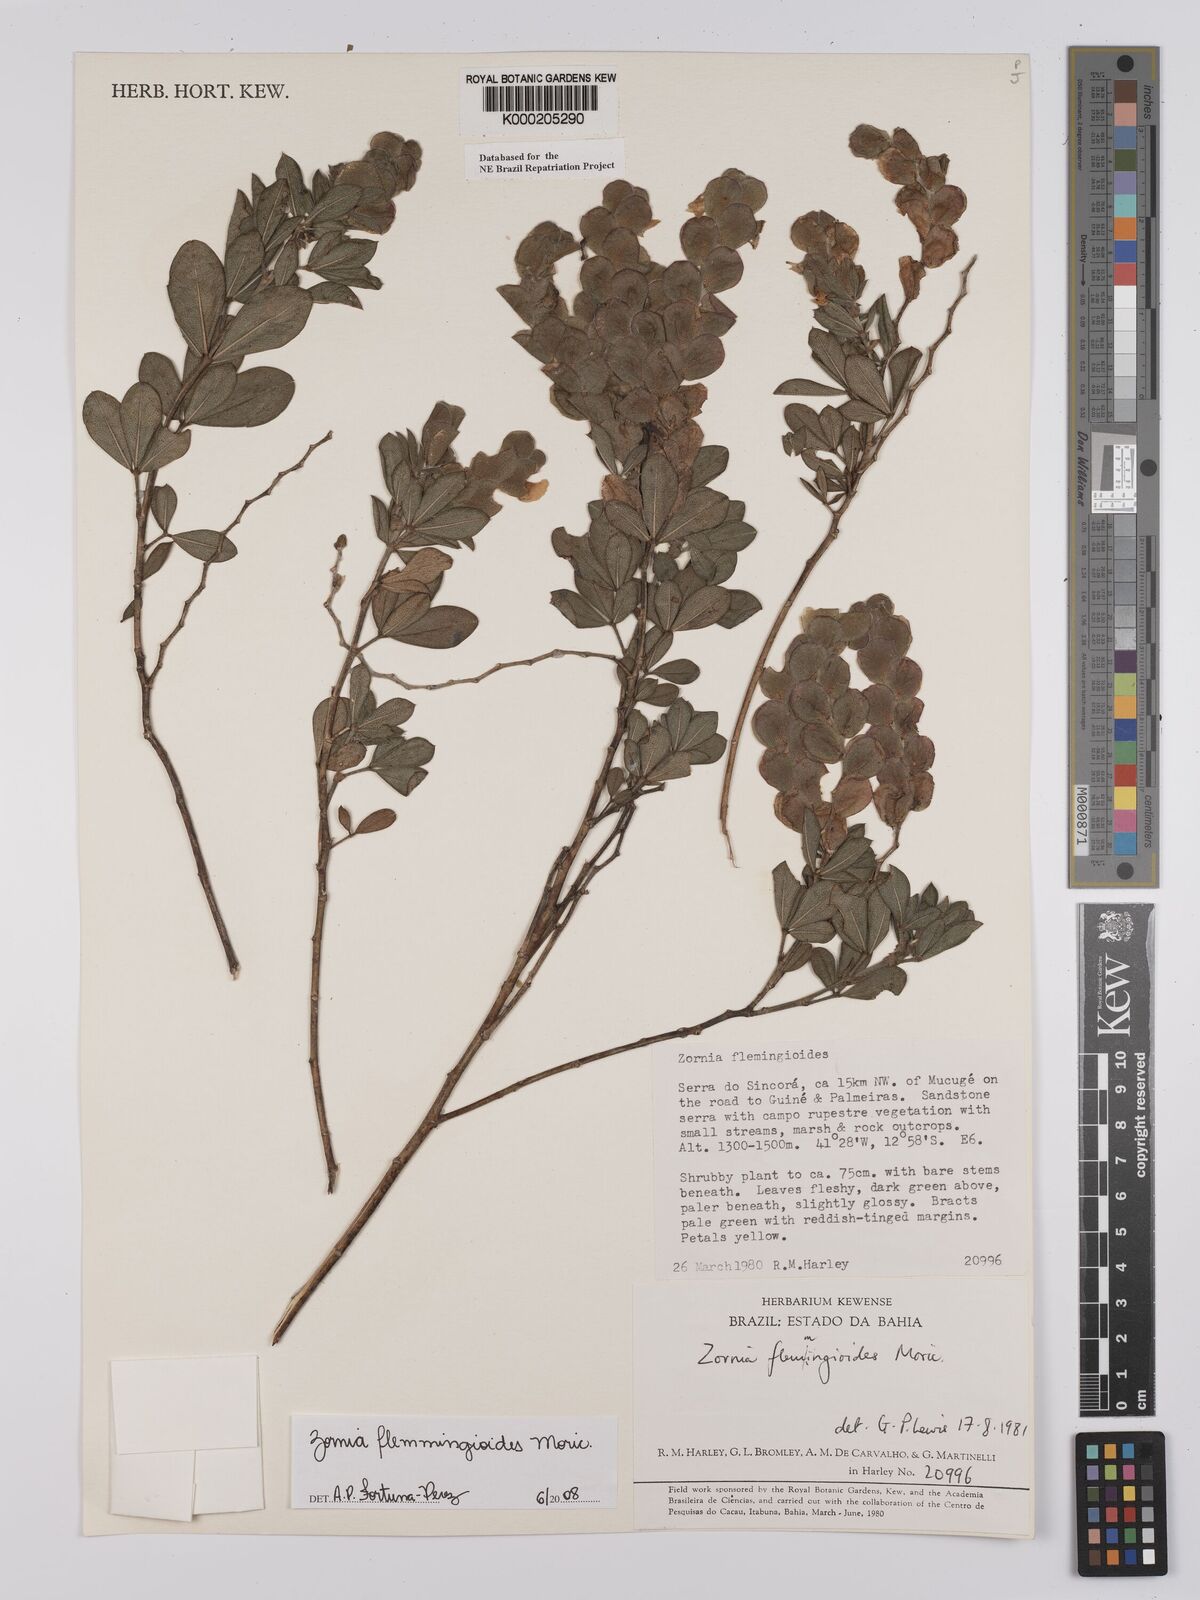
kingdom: Plantae
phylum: Tracheophyta
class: Magnoliopsida
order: Fabales
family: Fabaceae
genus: Zornia
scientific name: Zornia flemmingioides
